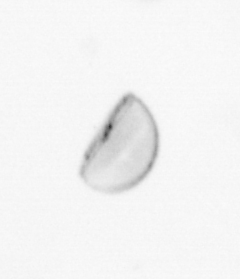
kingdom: Chromista
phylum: Ochrophyta
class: Bacillariophyceae
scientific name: Bacillariophyceae
